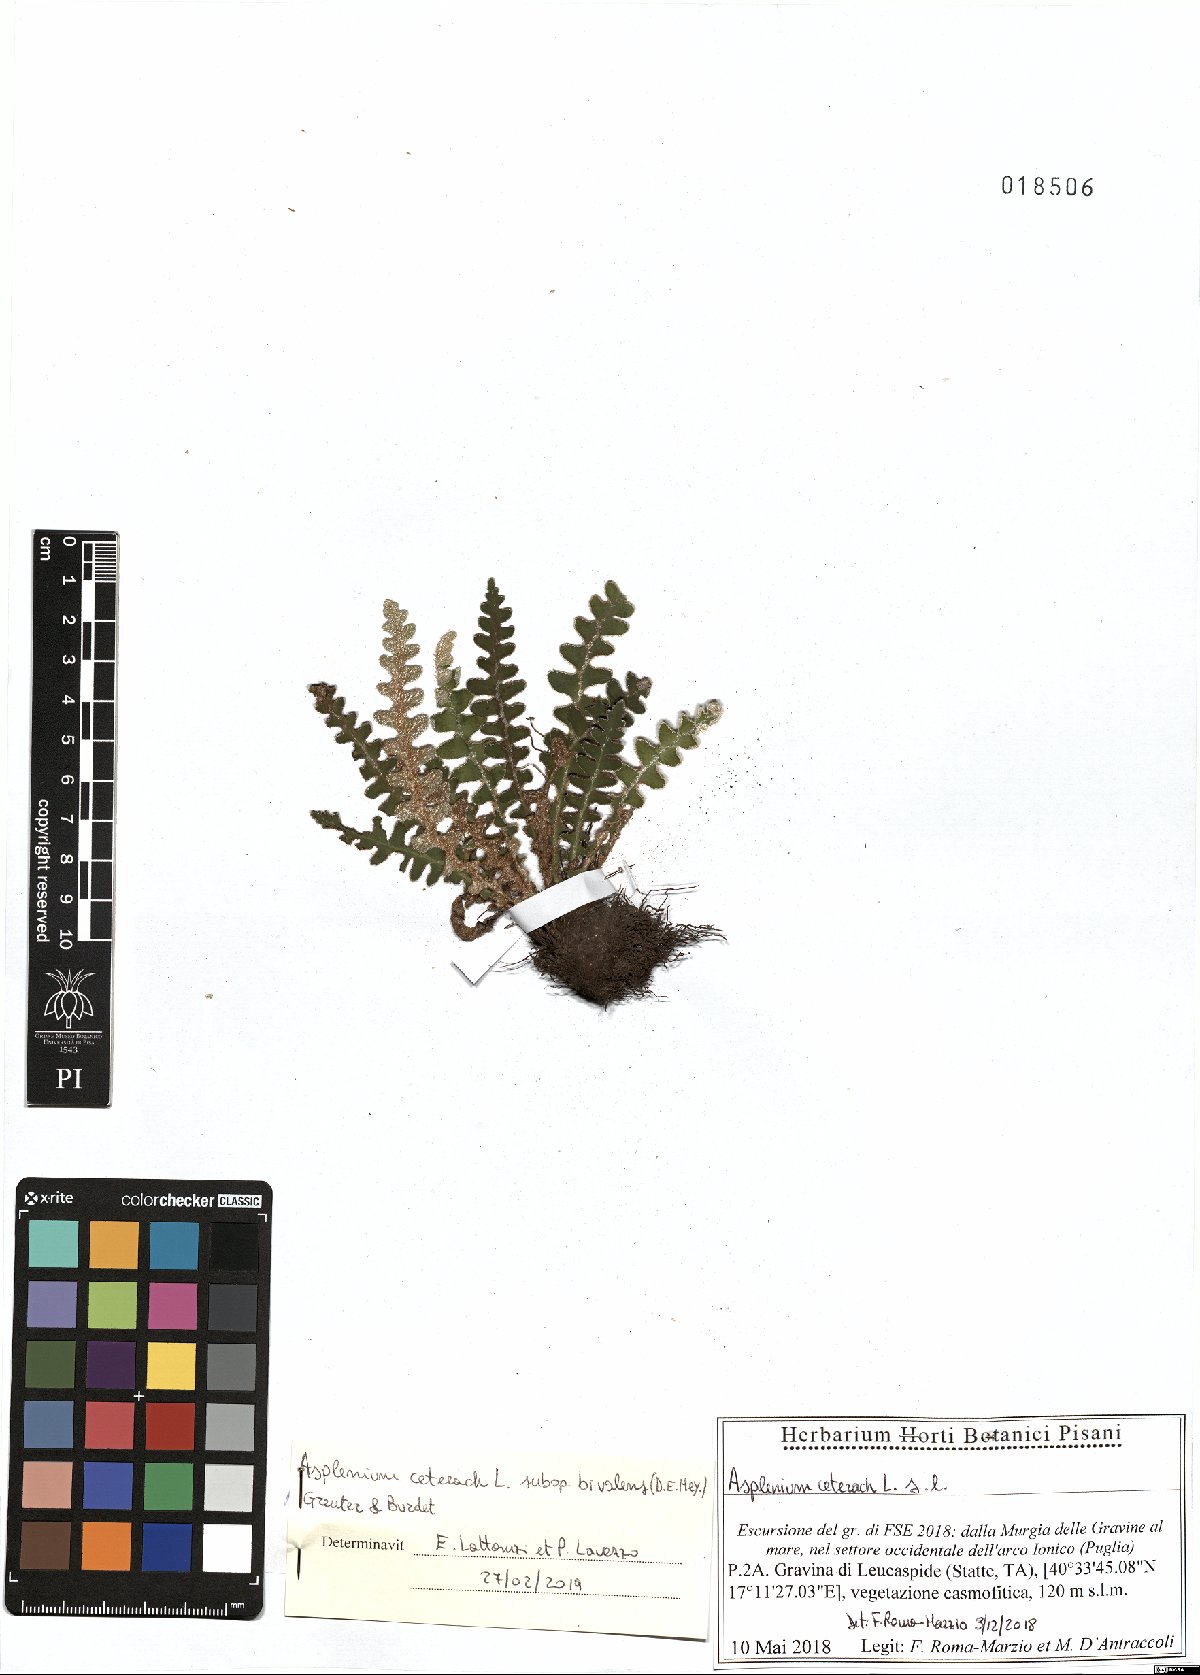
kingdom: Plantae
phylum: Tracheophyta
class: Polypodiopsida
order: Polypodiales
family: Aspleniaceae
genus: Asplenium
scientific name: Asplenium ceterach
